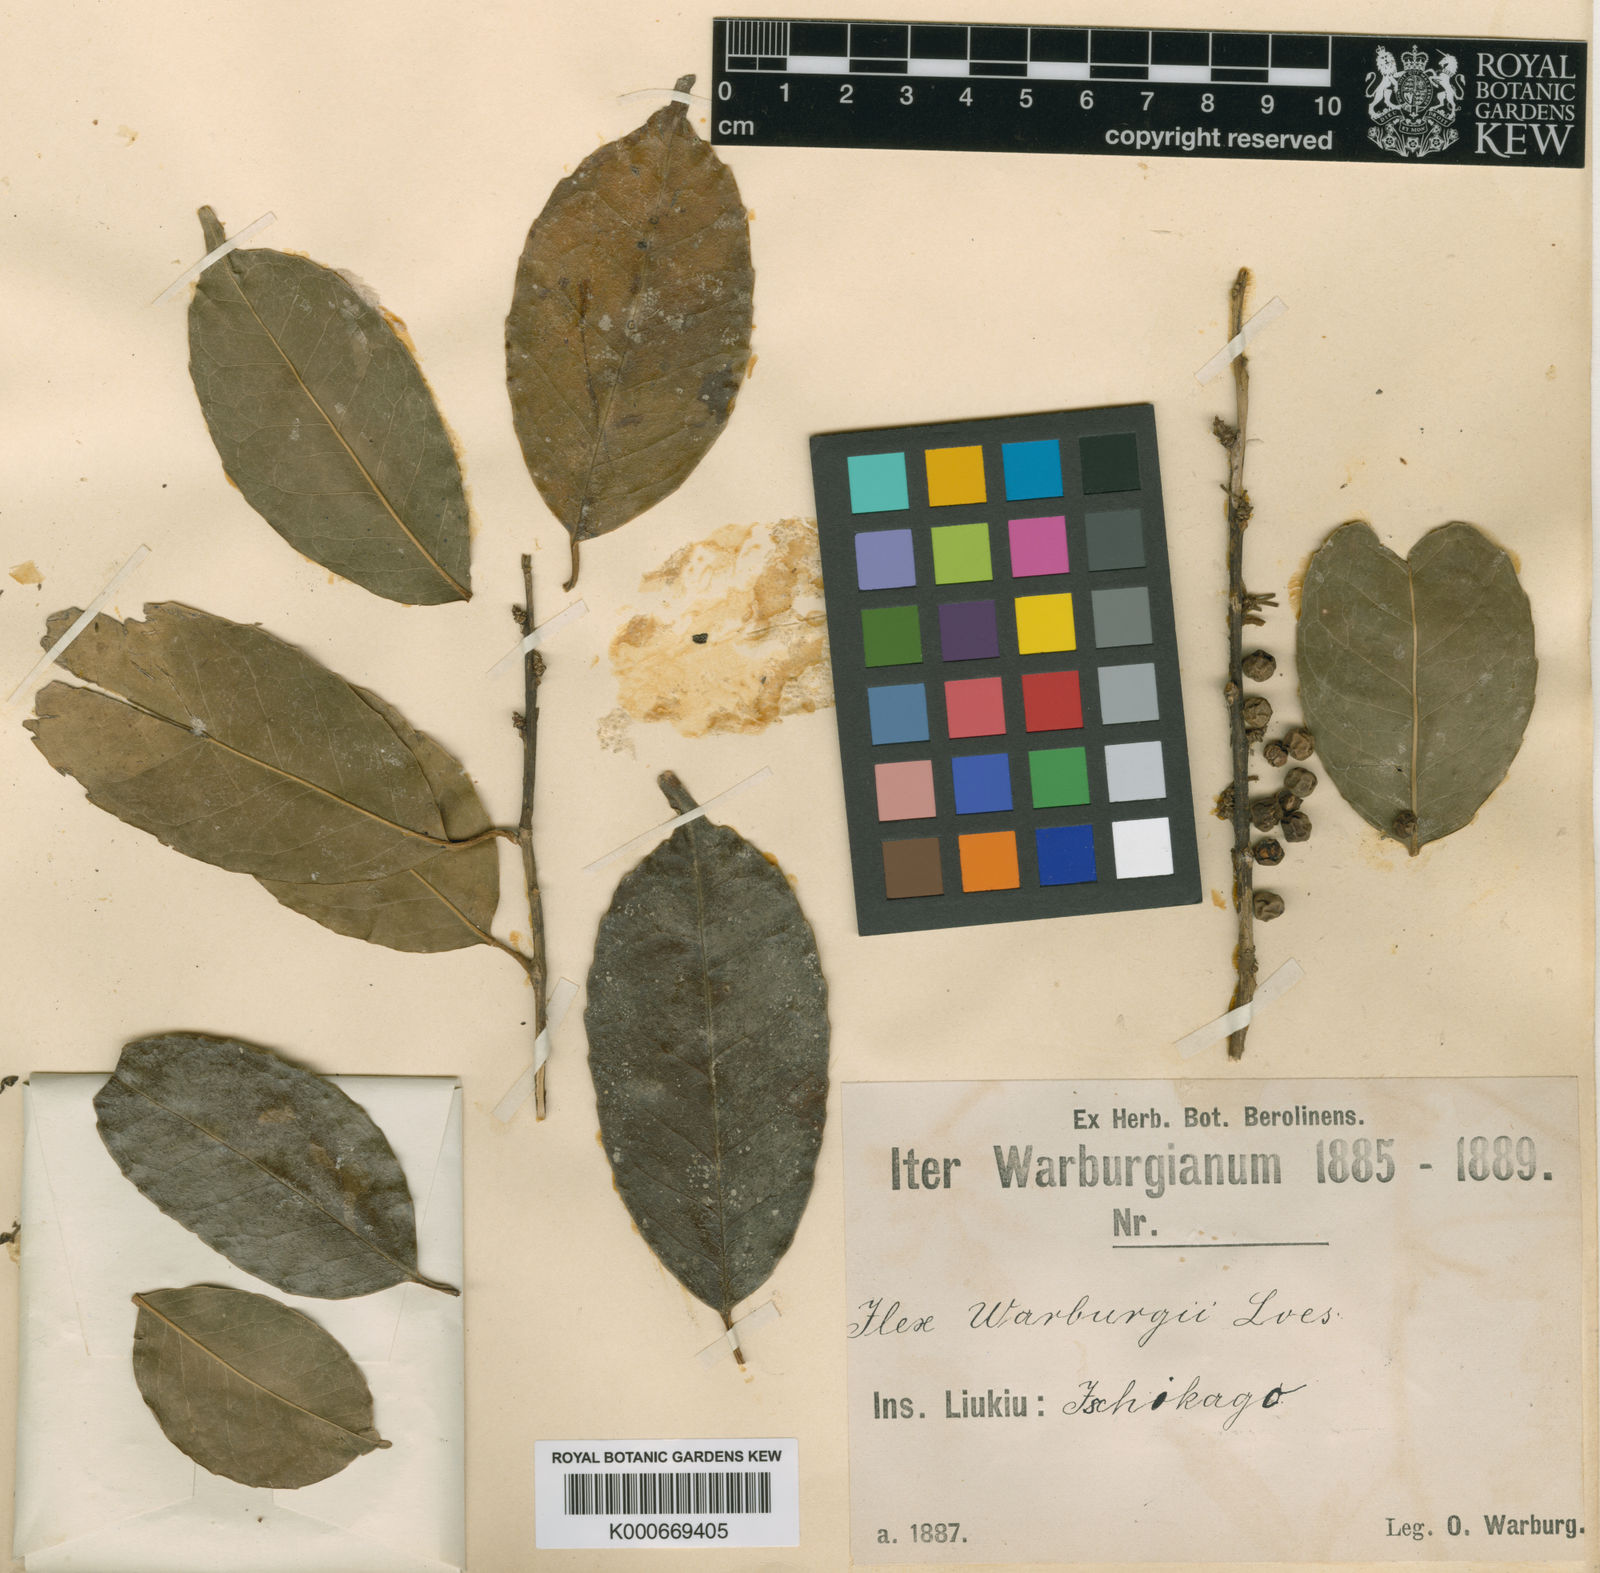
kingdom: Plantae
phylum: Tracheophyta
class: Magnoliopsida
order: Aquifoliales
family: Aquifoliaceae
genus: Ilex
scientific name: Ilex warburgii
